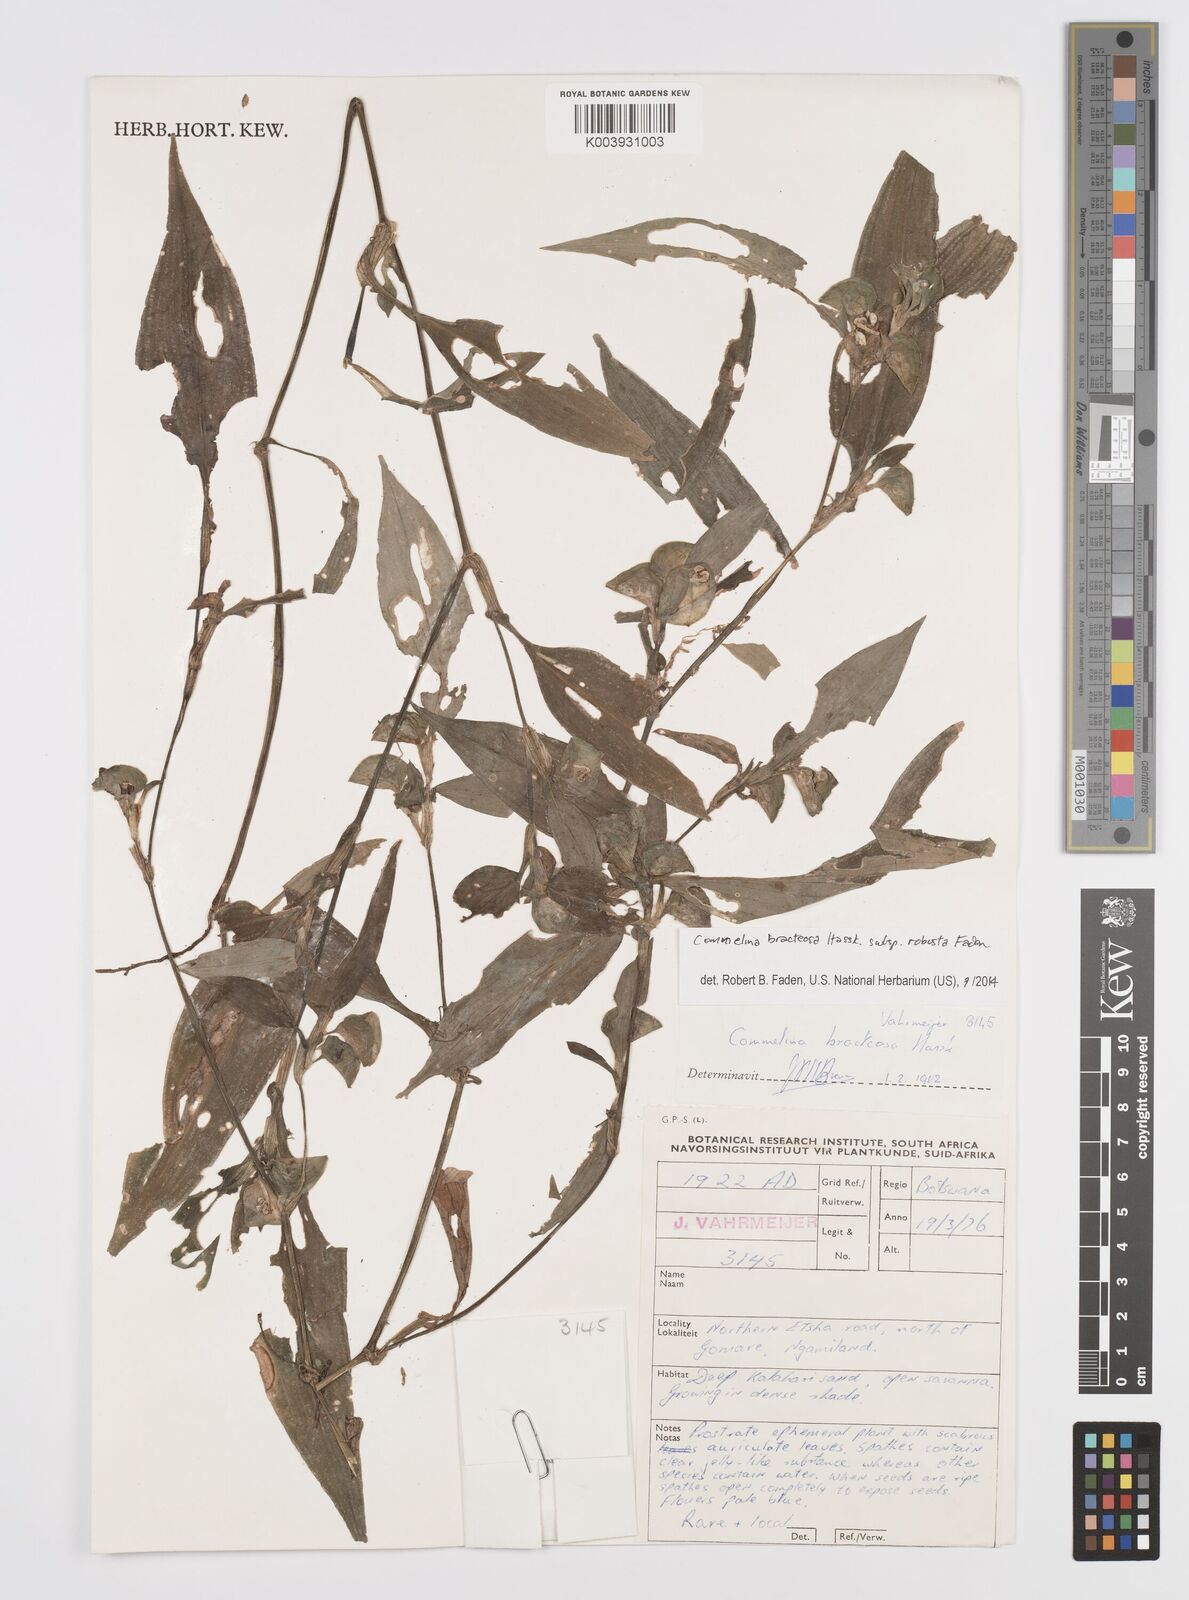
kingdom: Plantae
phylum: Tracheophyta
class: Liliopsida
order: Commelinales
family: Commelinaceae
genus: Commelina
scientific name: Commelina bracteosa
